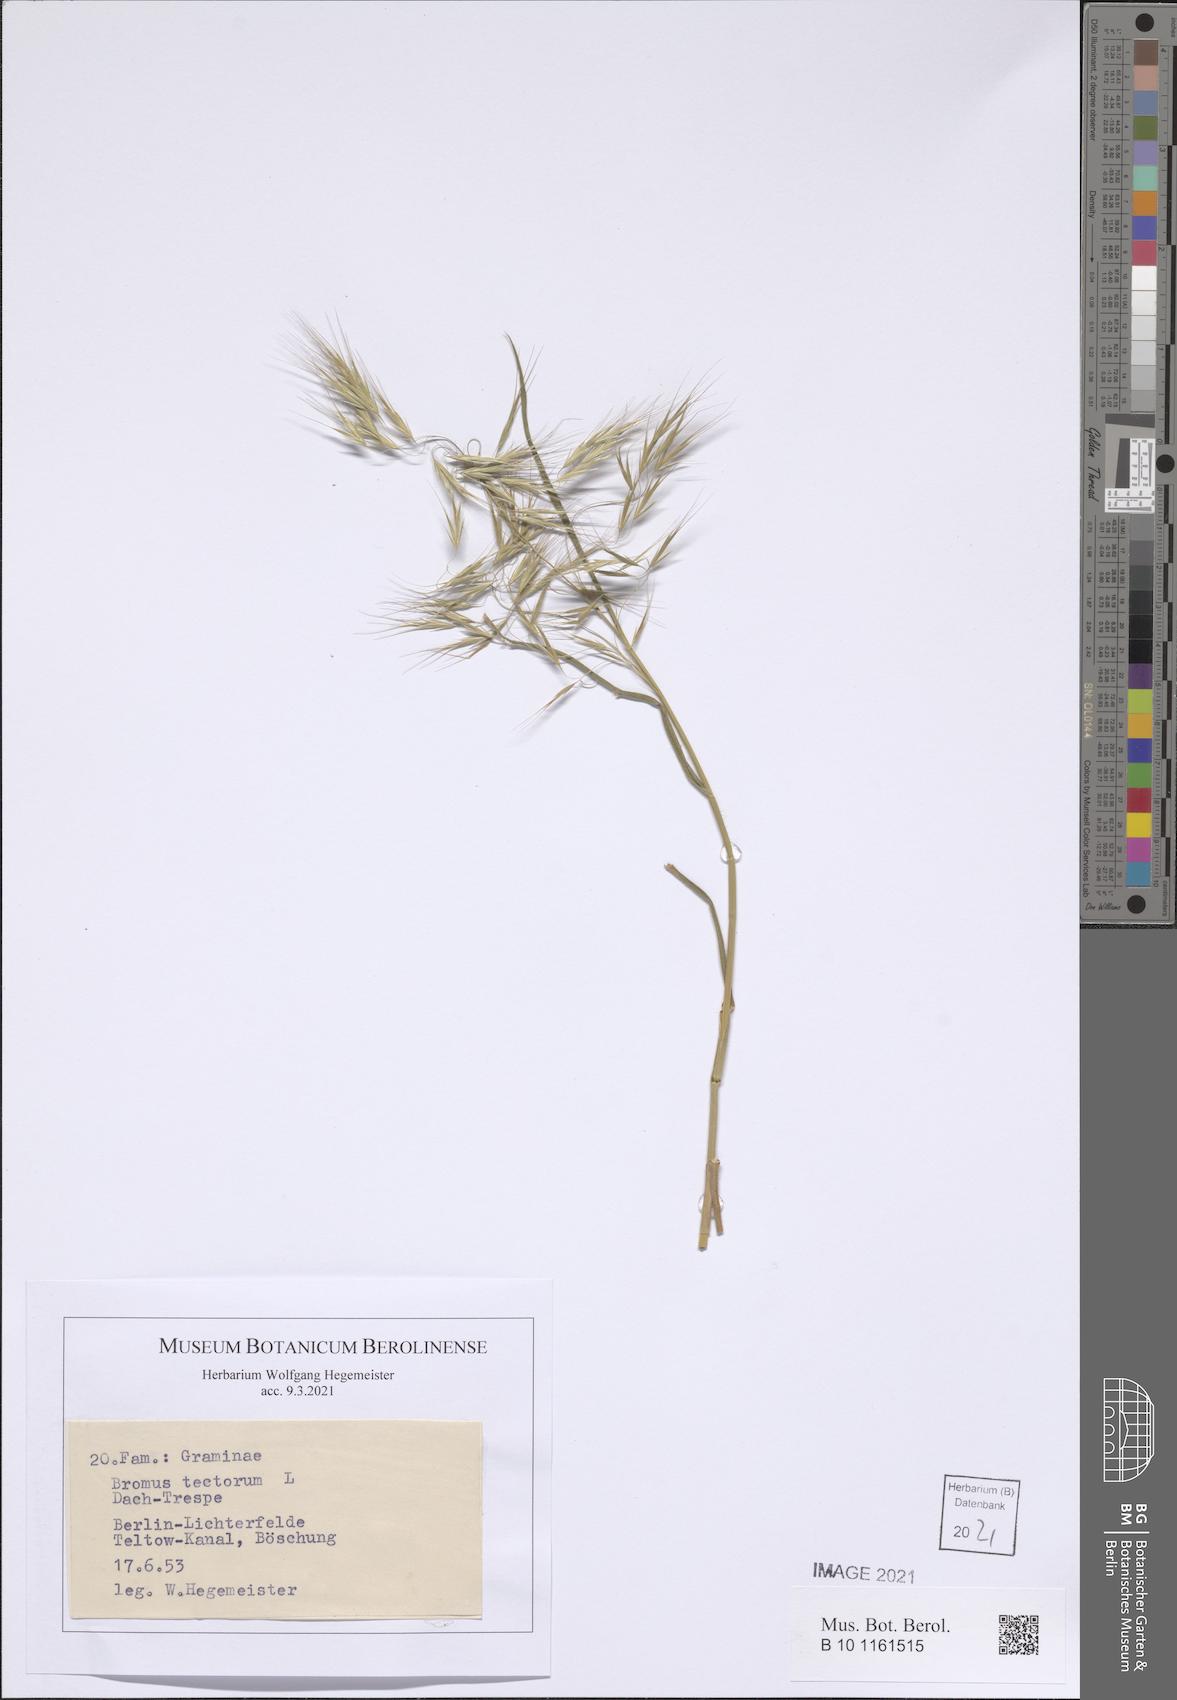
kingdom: Plantae
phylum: Tracheophyta
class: Liliopsida
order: Poales
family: Poaceae
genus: Bromus
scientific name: Bromus tectorum
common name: Cheatgrass
